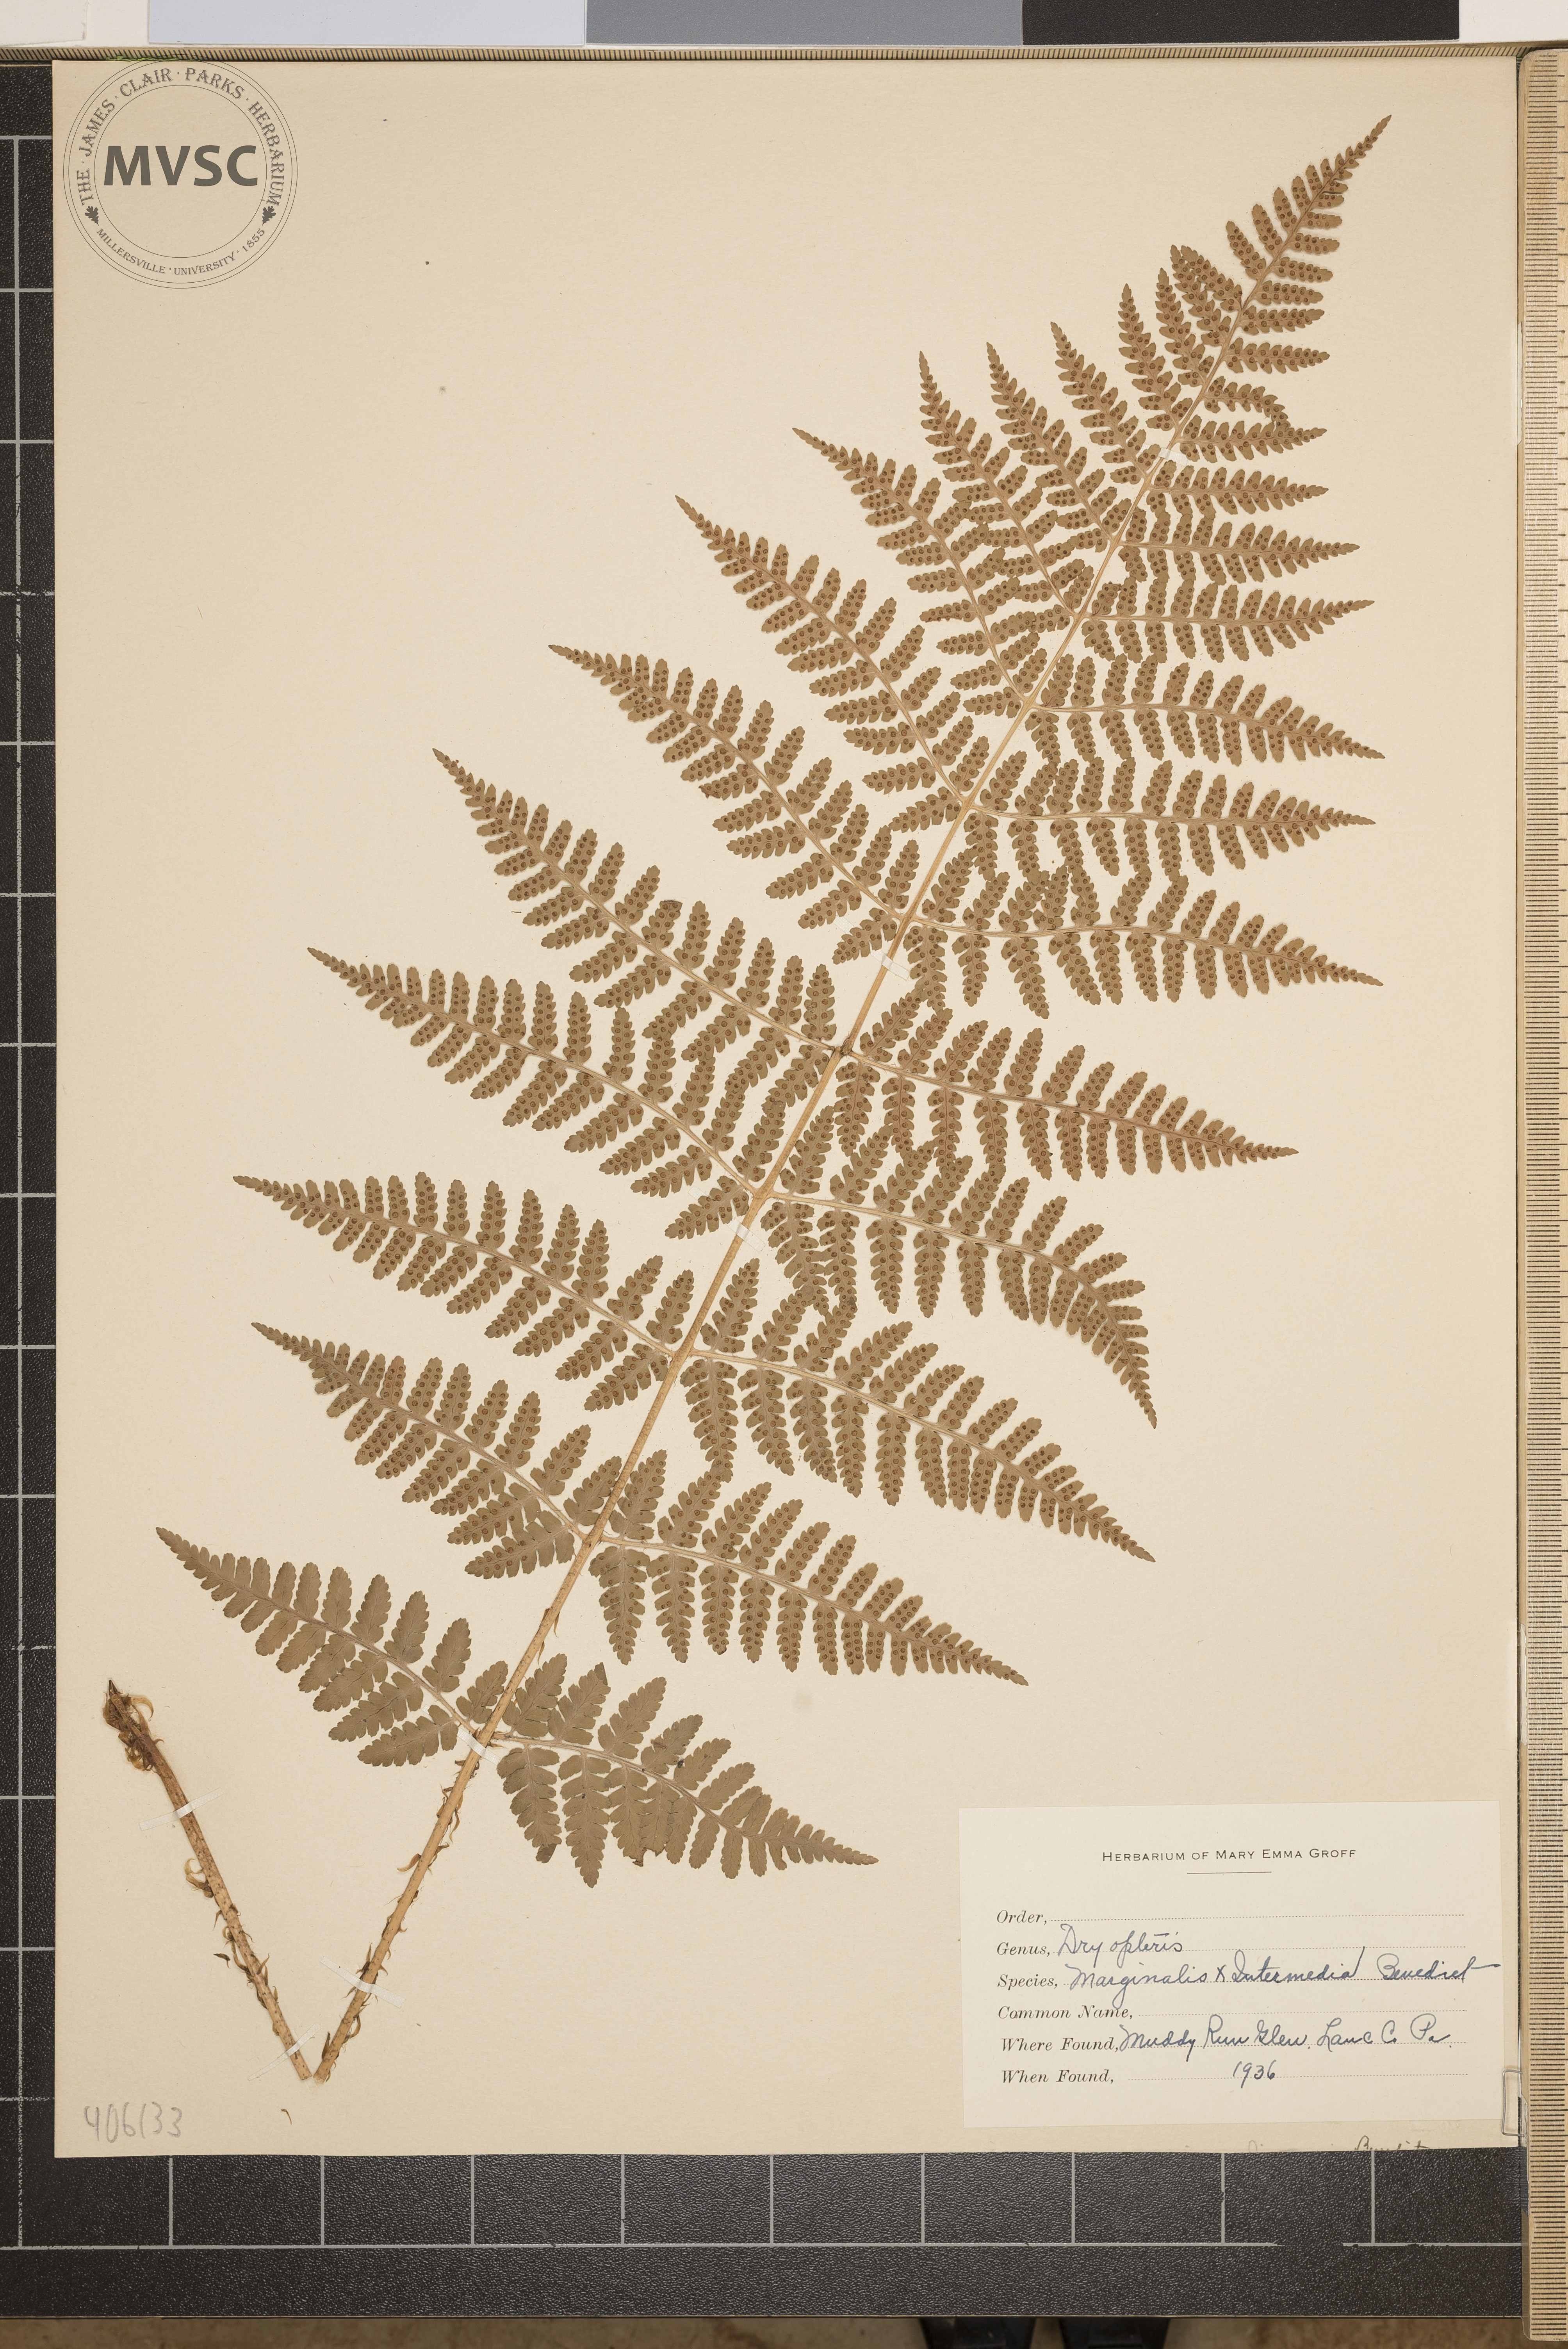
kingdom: Plantae
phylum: Tracheophyta
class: Polypodiopsida
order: Polypodiales
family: Dryopteridaceae
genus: Dryopteris
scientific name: Dryopteris
